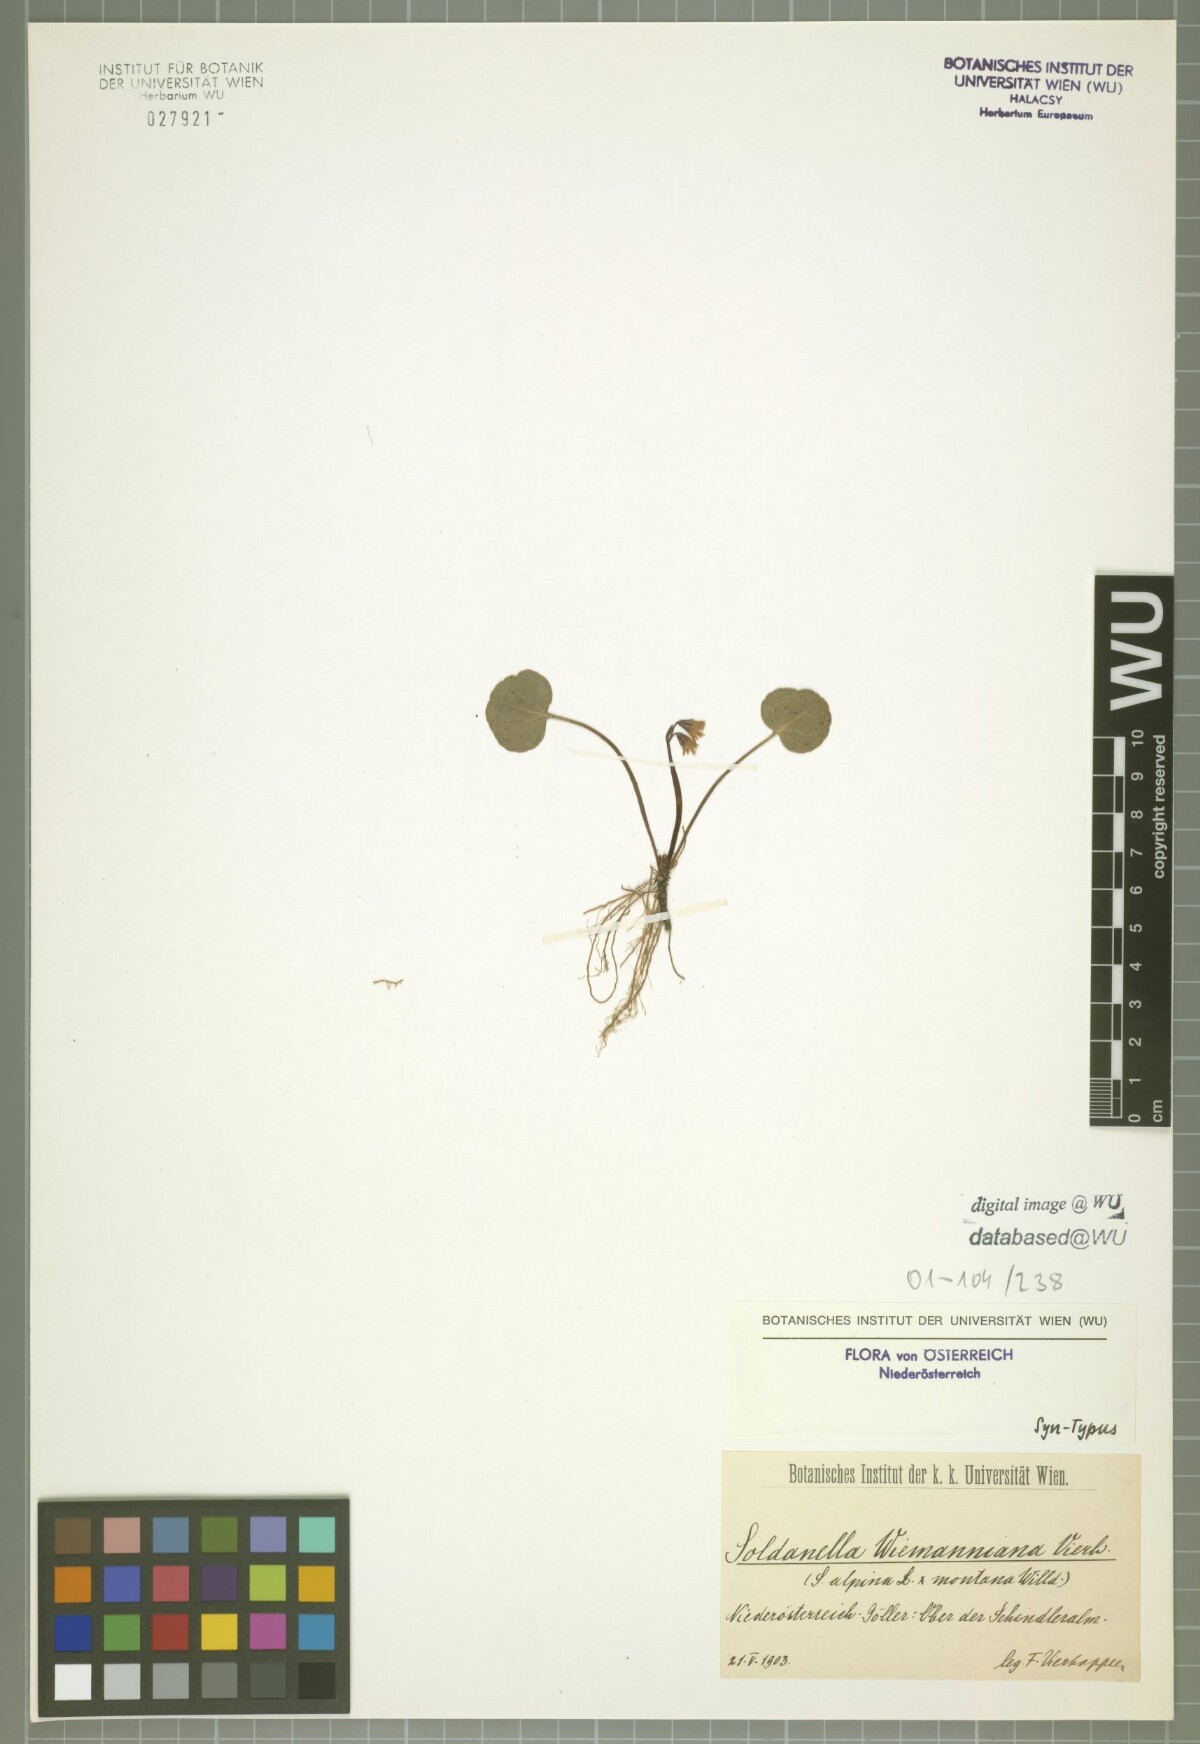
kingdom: Plantae
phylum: Tracheophyta
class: Magnoliopsida
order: Ericales
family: Primulaceae
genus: Soldanella
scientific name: Soldanella wiemanniana
